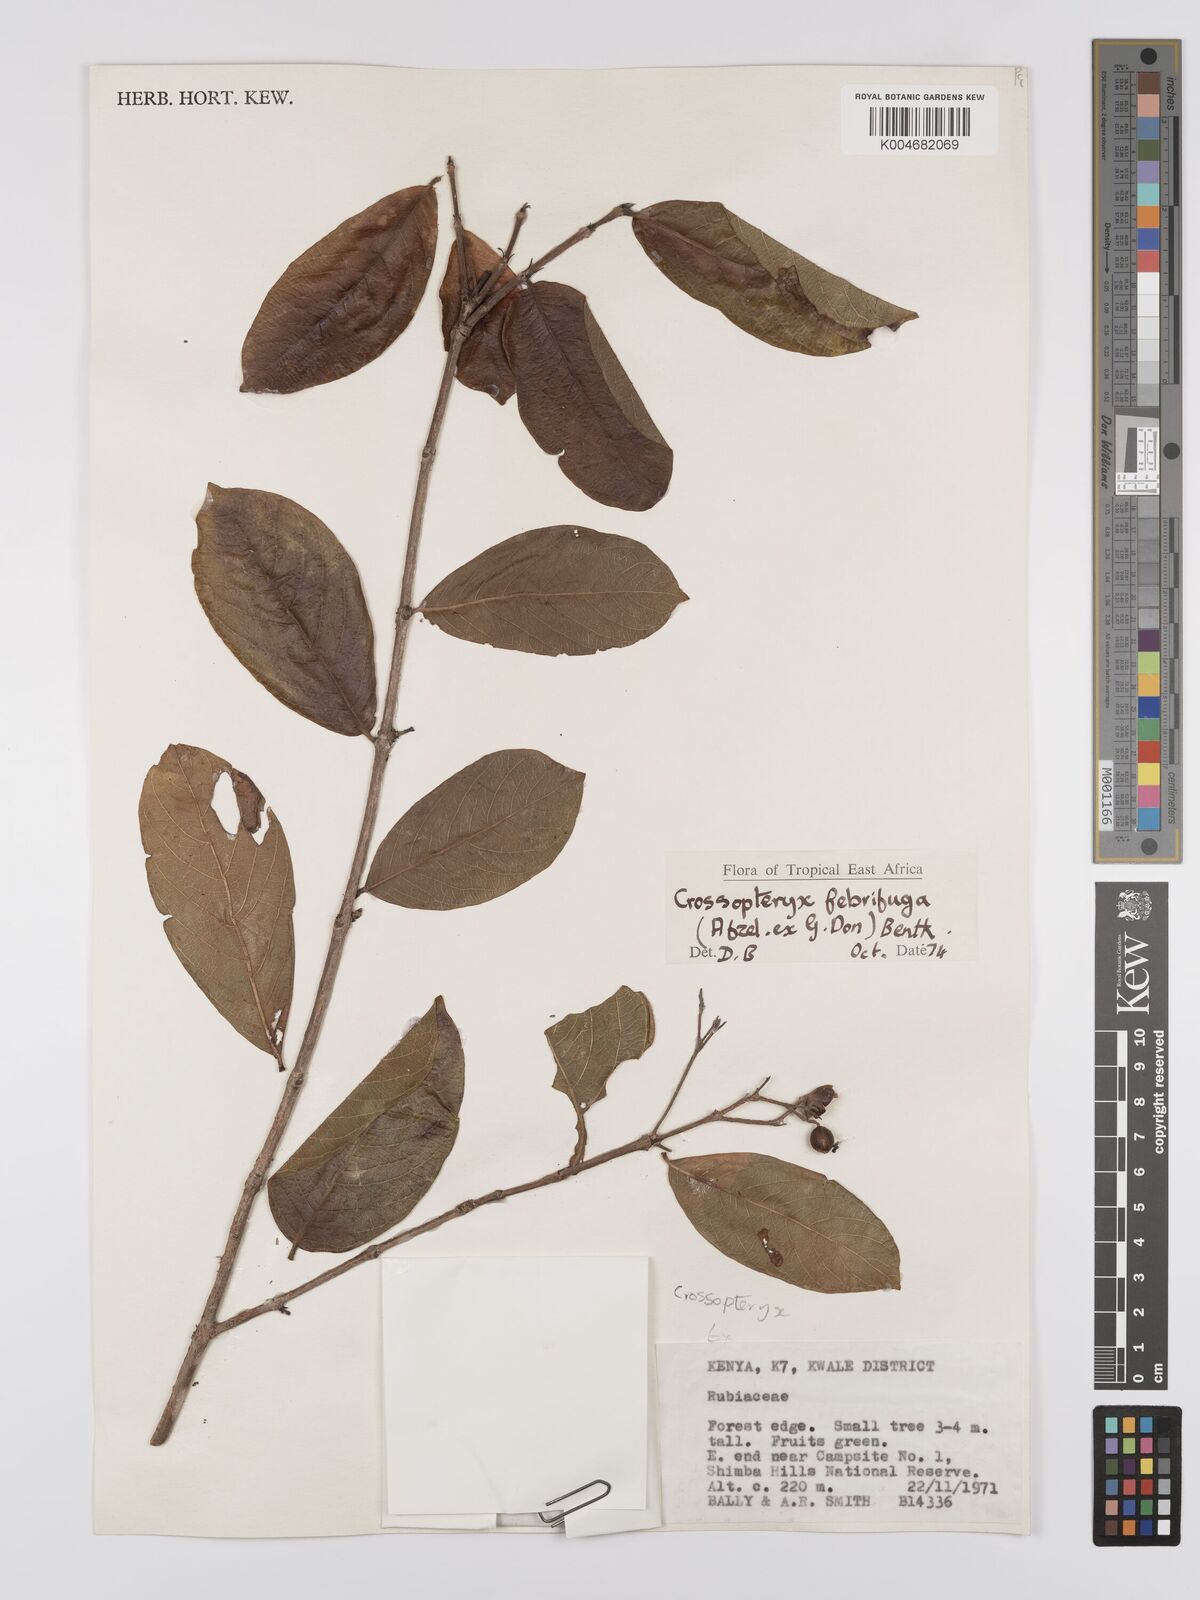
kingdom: Plantae
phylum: Tracheophyta
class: Magnoliopsida
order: Gentianales
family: Rubiaceae
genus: Crossopteryx
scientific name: Crossopteryx febrifuga
